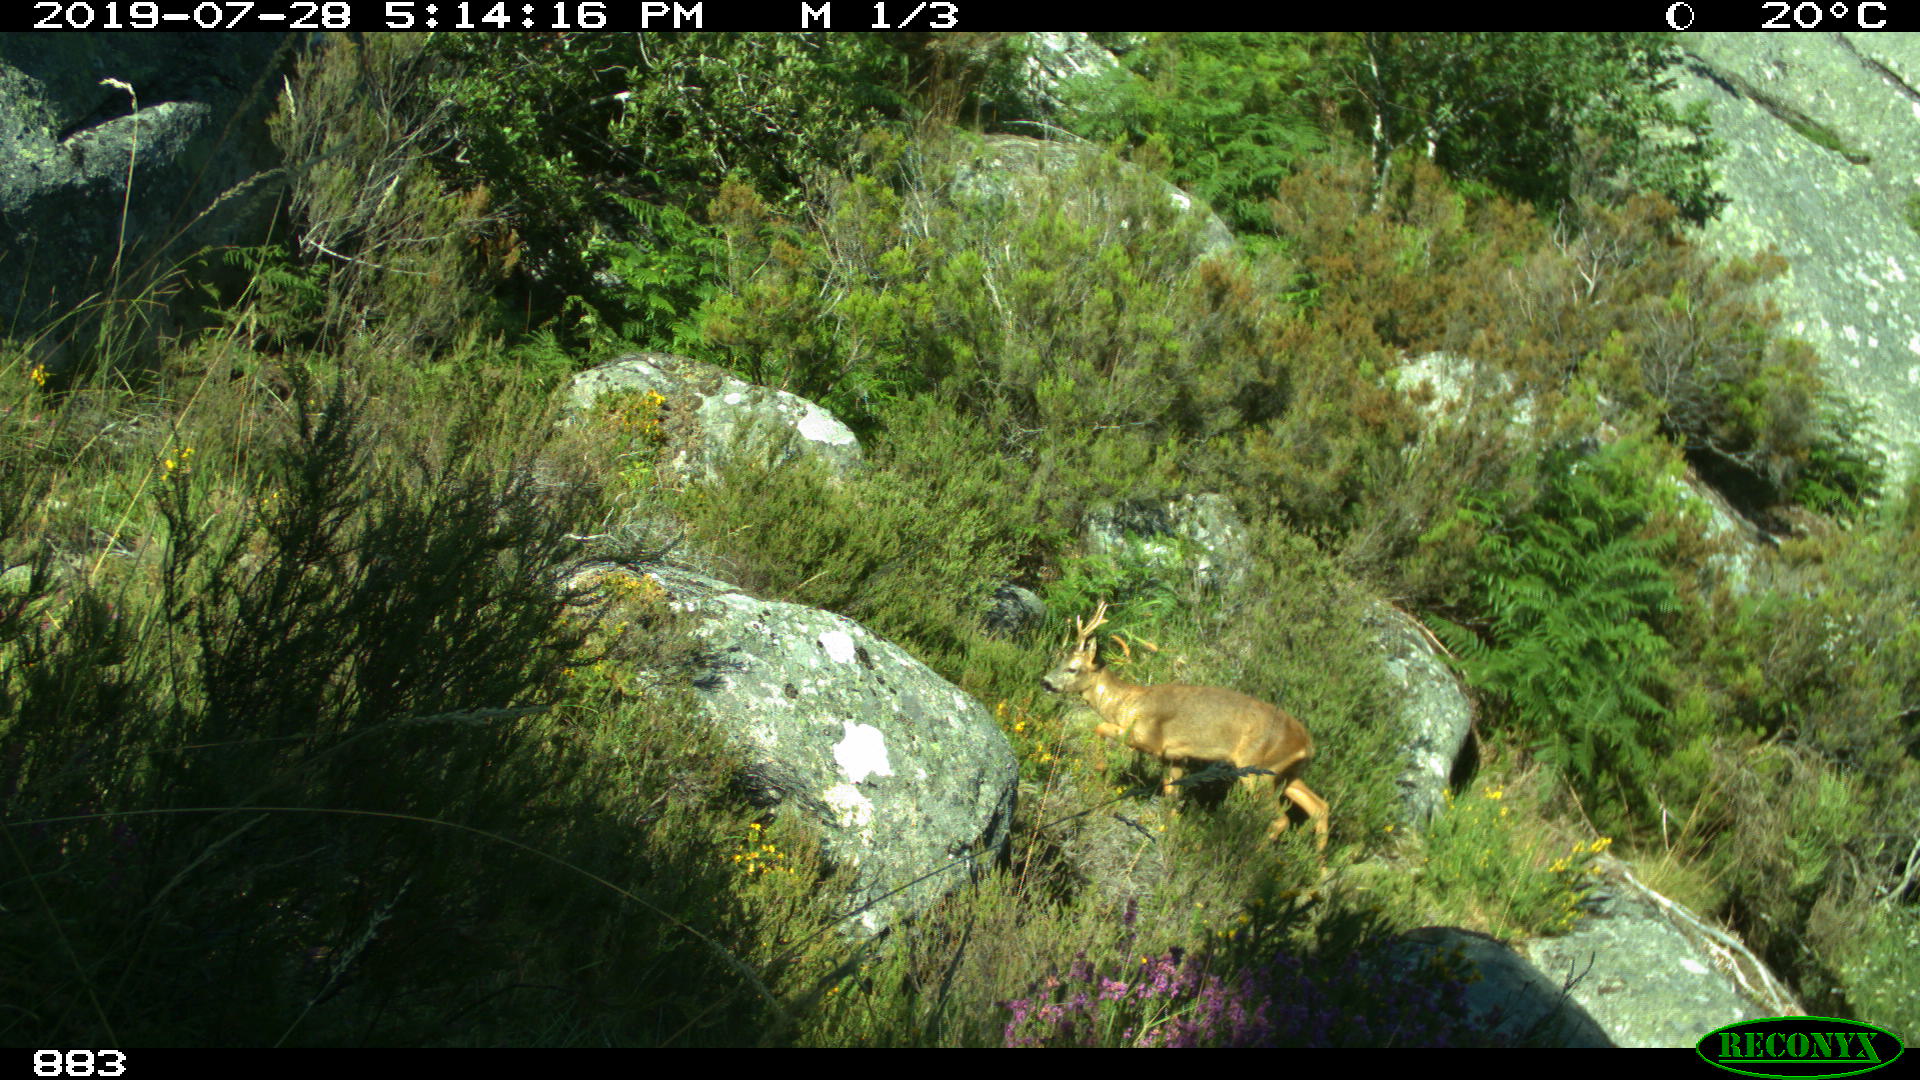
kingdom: Animalia
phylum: Chordata
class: Mammalia
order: Artiodactyla
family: Cervidae
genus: Capreolus
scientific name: Capreolus capreolus
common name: Western roe deer
